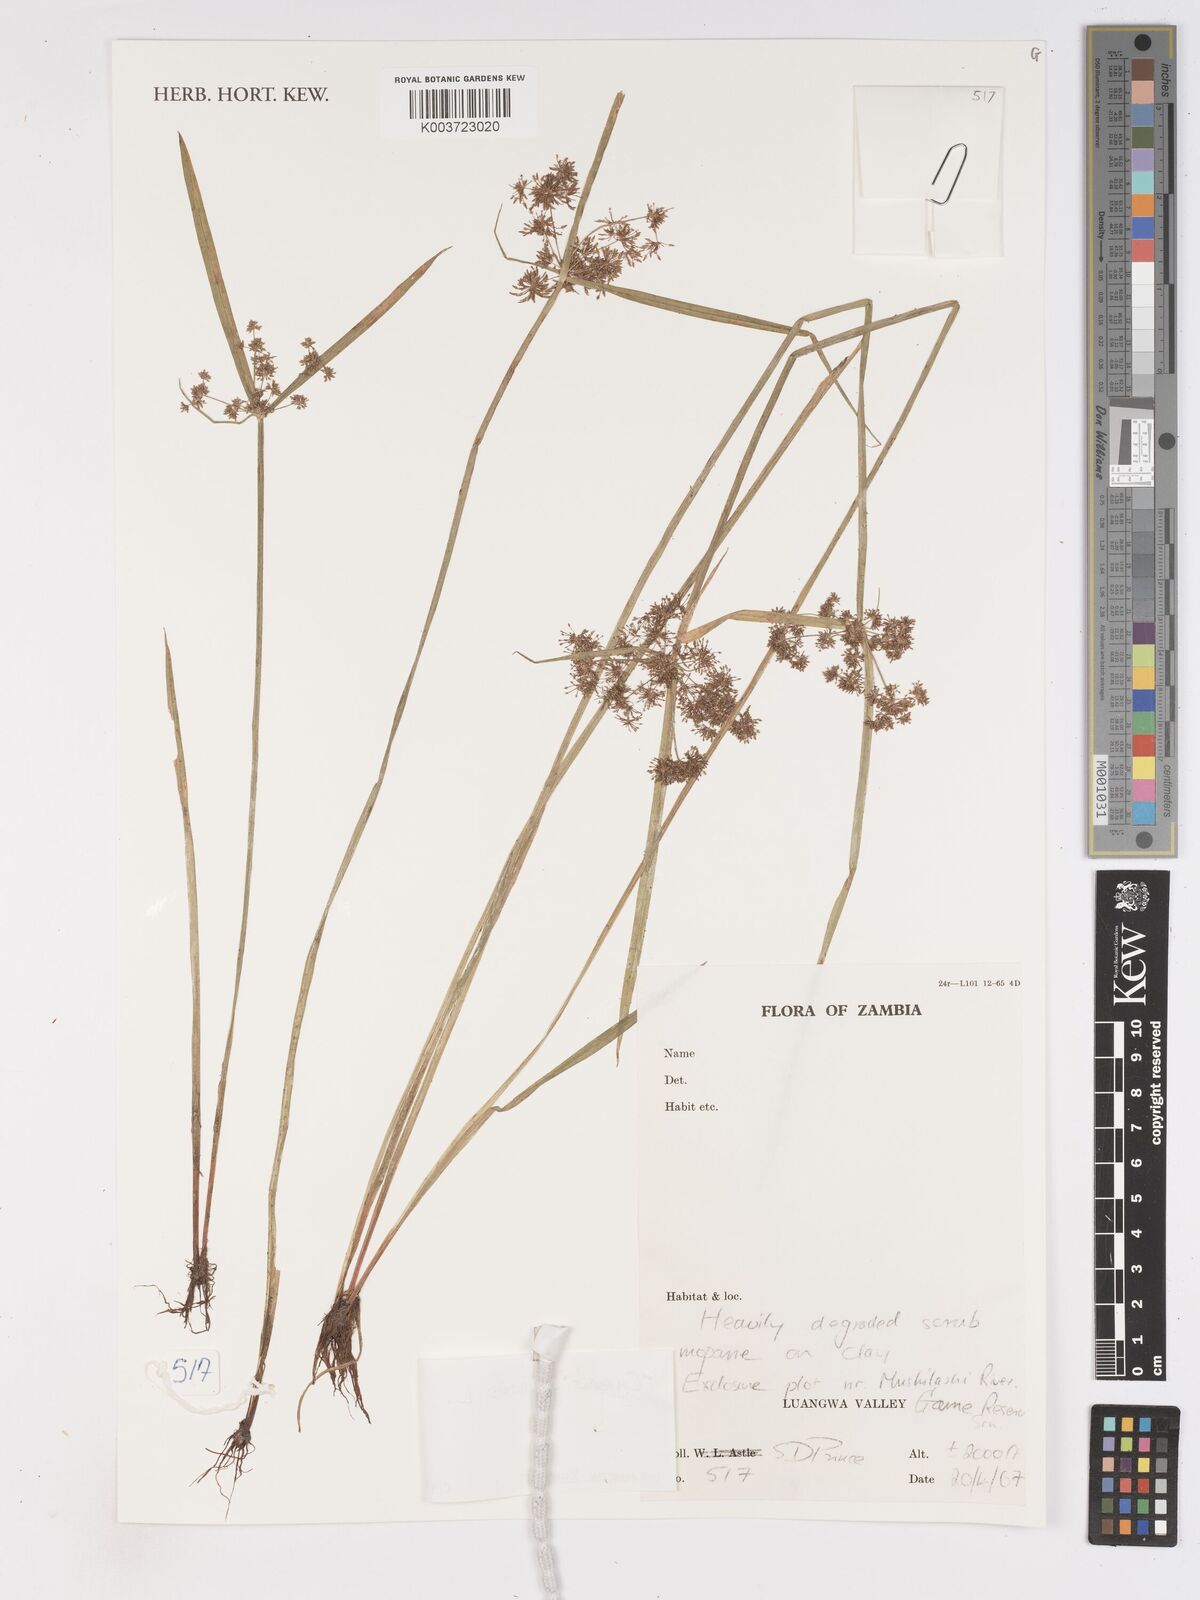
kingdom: Plantae
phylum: Tracheophyta
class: Liliopsida
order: Poales
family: Cyperaceae
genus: Cyperus
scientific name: Cyperus difformis
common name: Variable flatsedge
